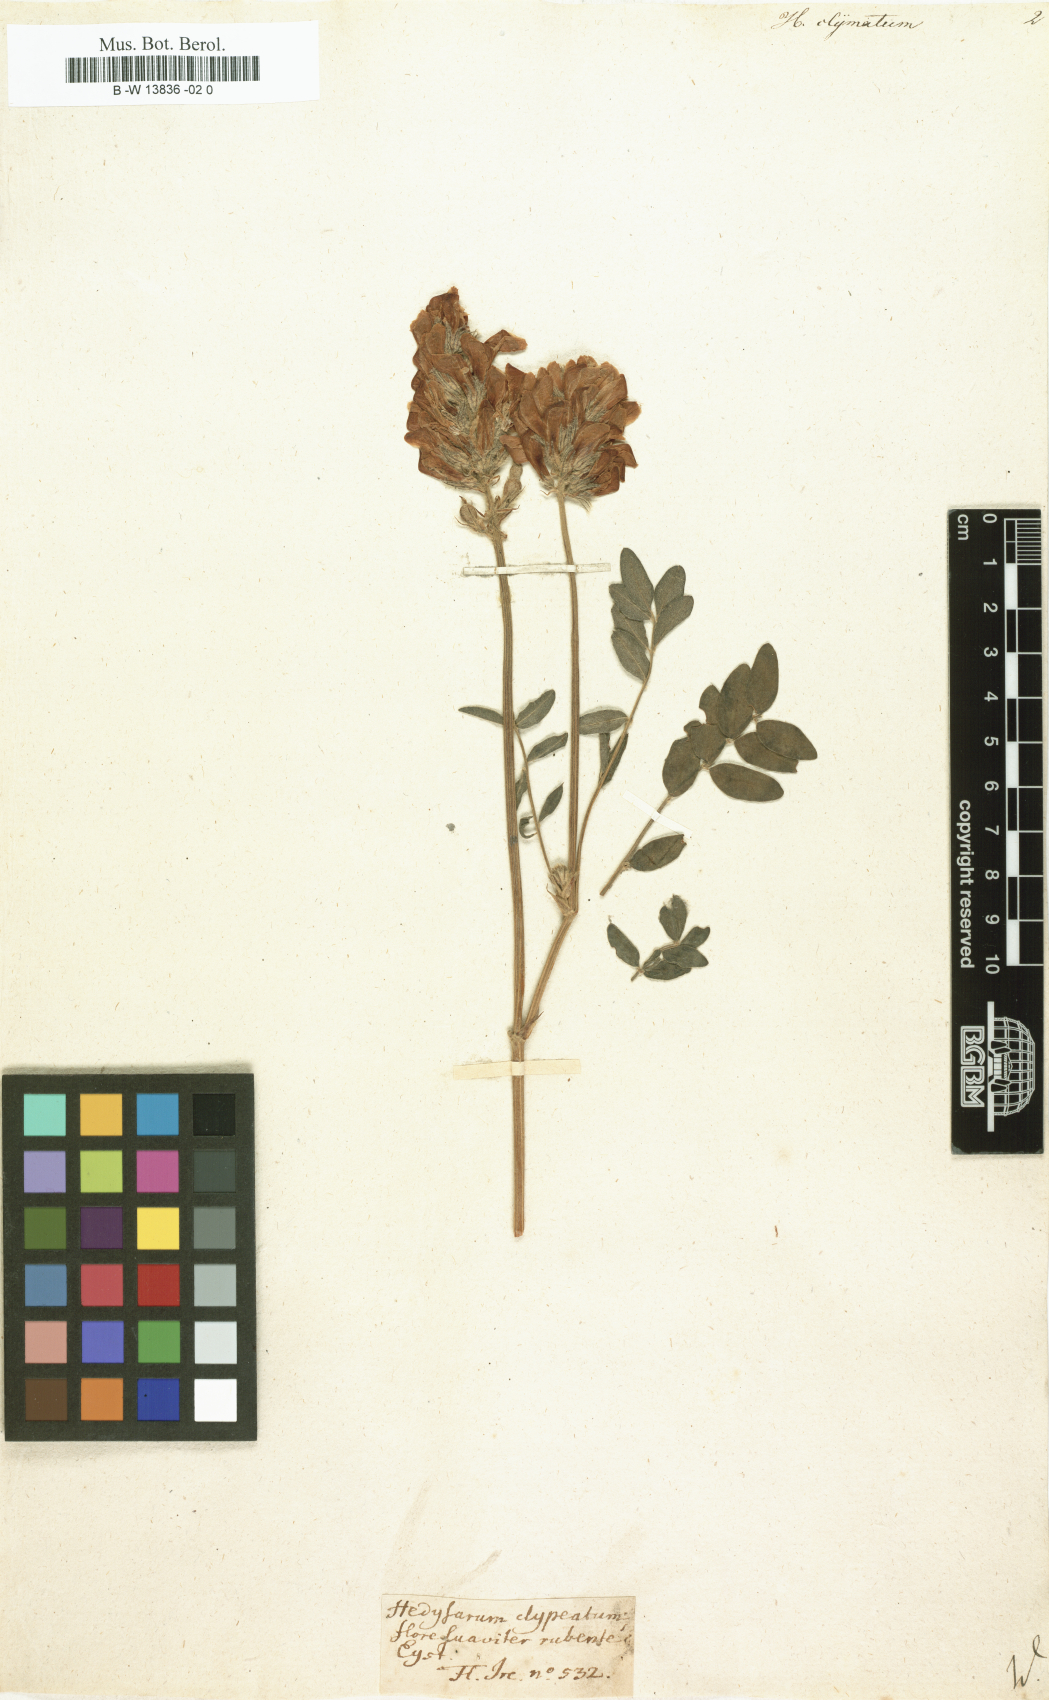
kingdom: Plantae
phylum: Tracheophyta
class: Magnoliopsida
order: Fabales
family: Fabaceae
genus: Hedysarum
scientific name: Hedysarum
